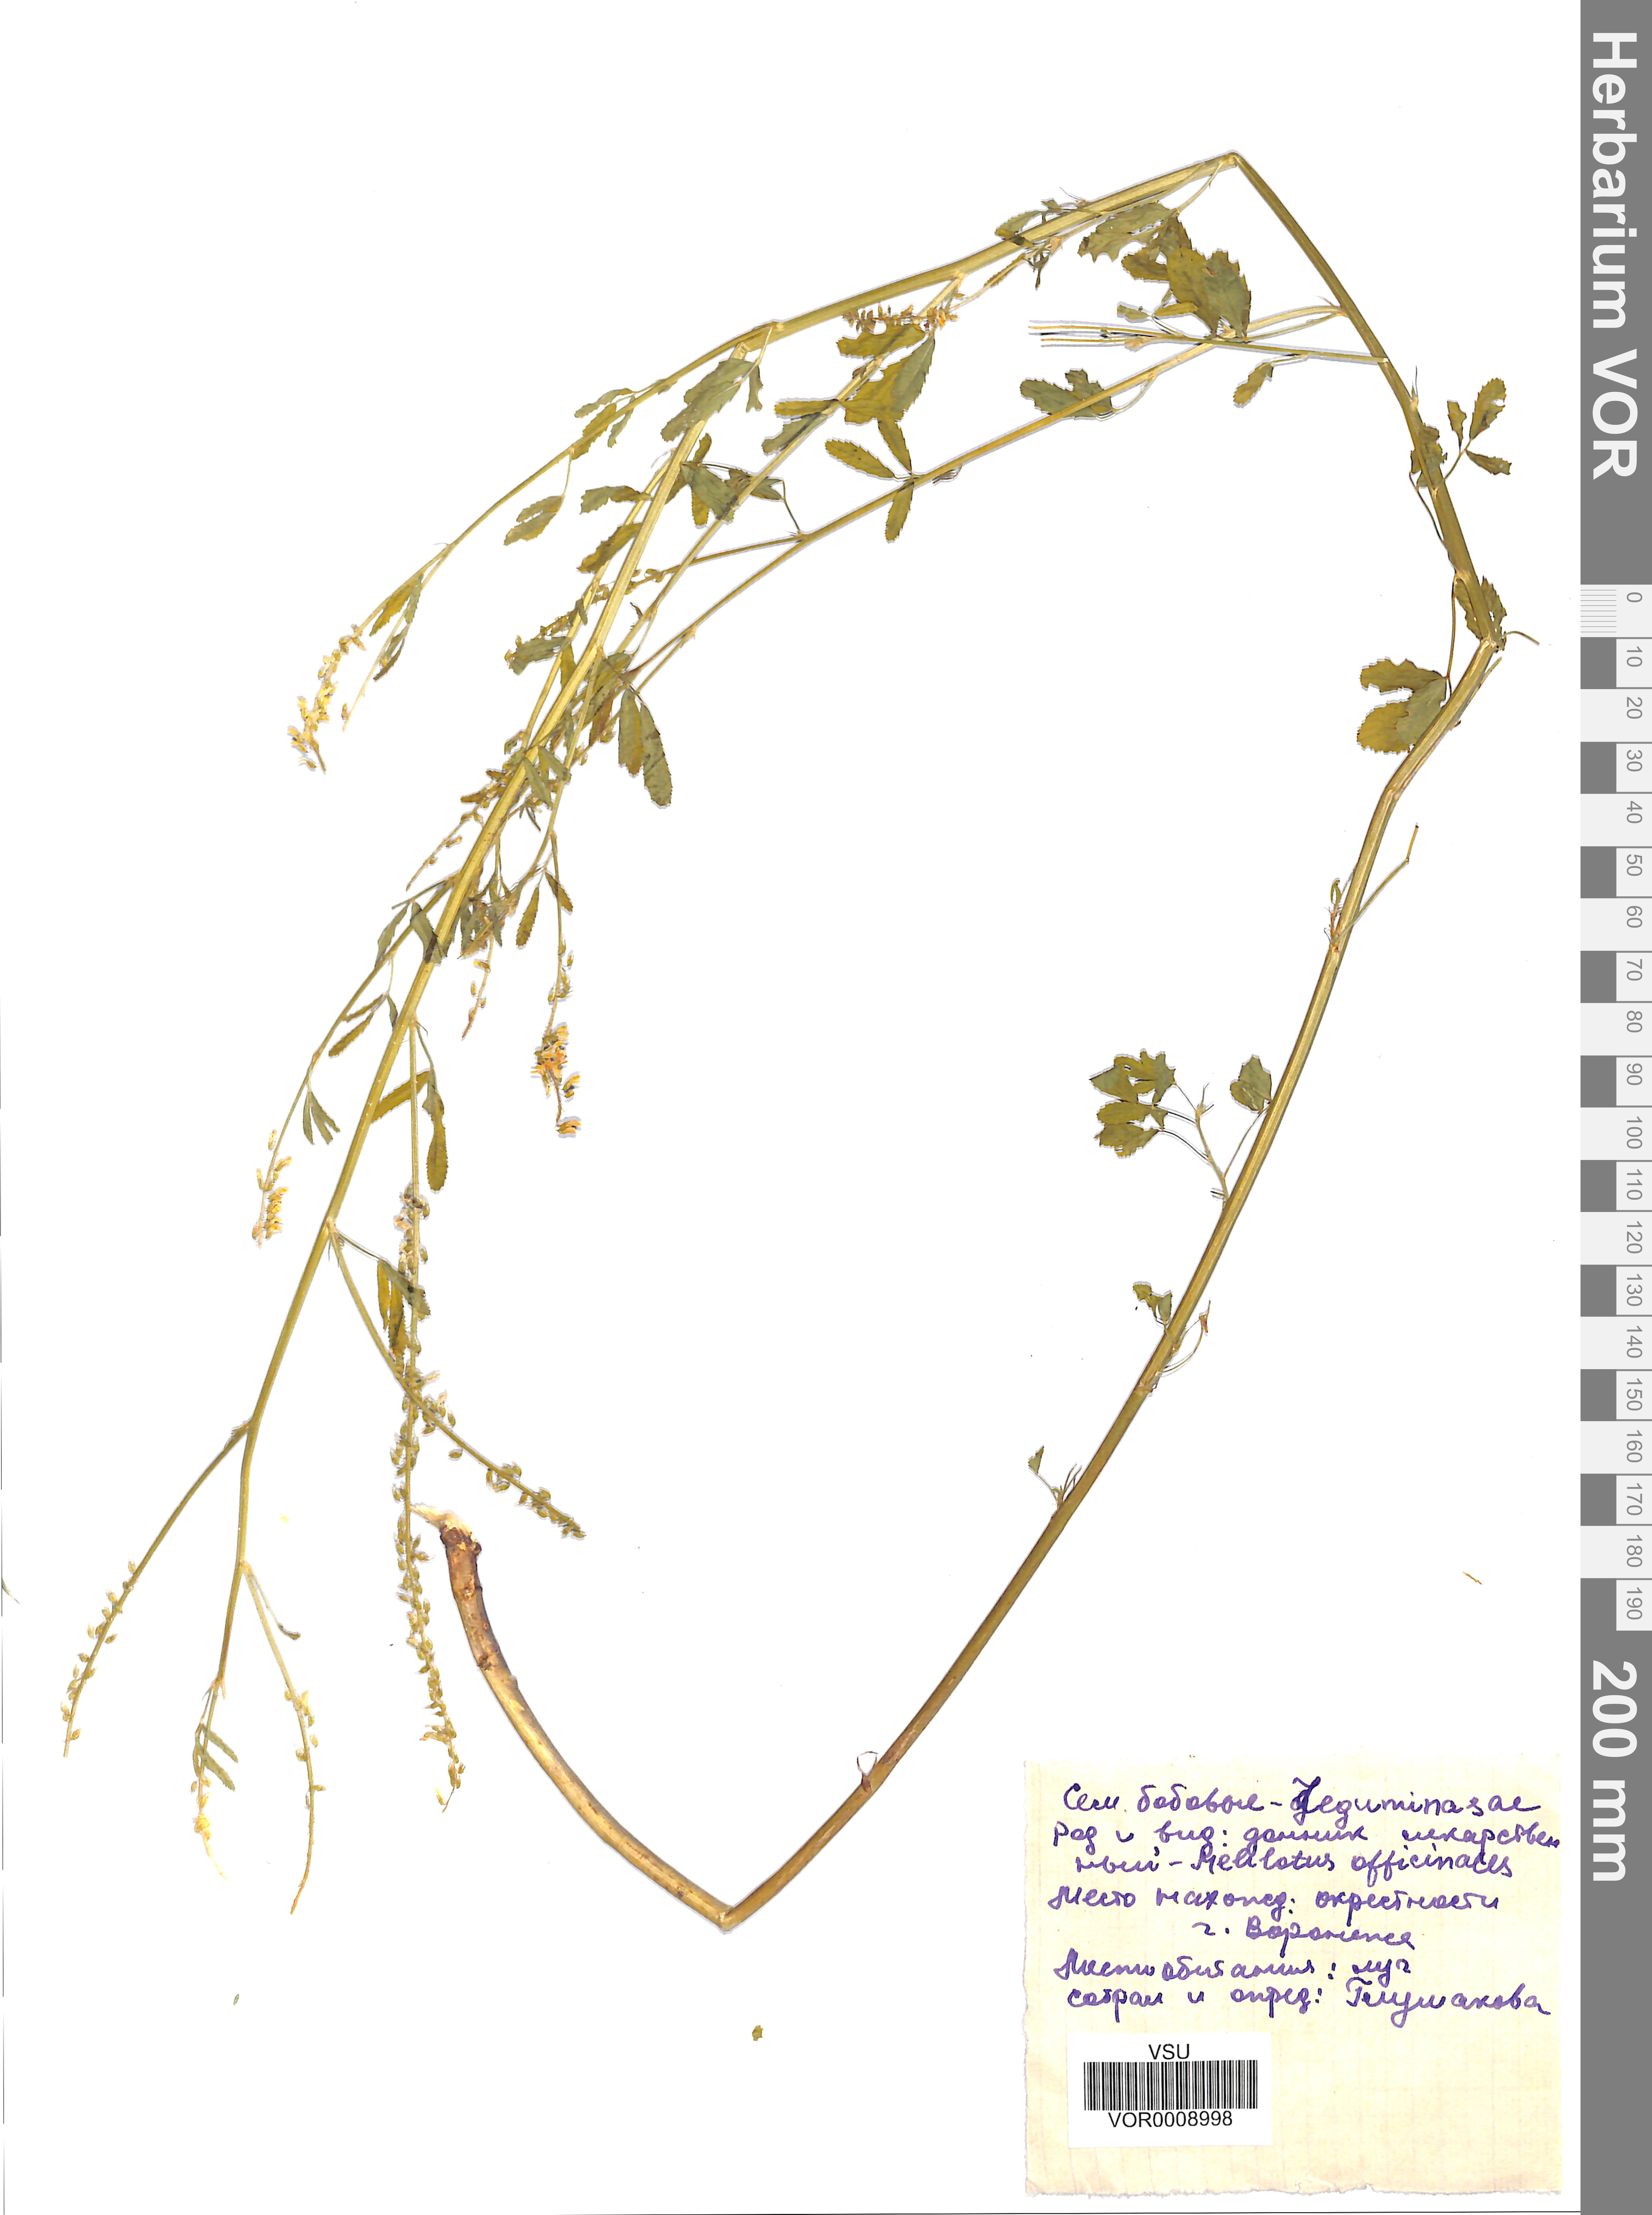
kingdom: Plantae
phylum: Tracheophyta
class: Magnoliopsida
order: Fabales
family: Fabaceae
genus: Melilotus
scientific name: Melilotus officinalis
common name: Sweetclover
